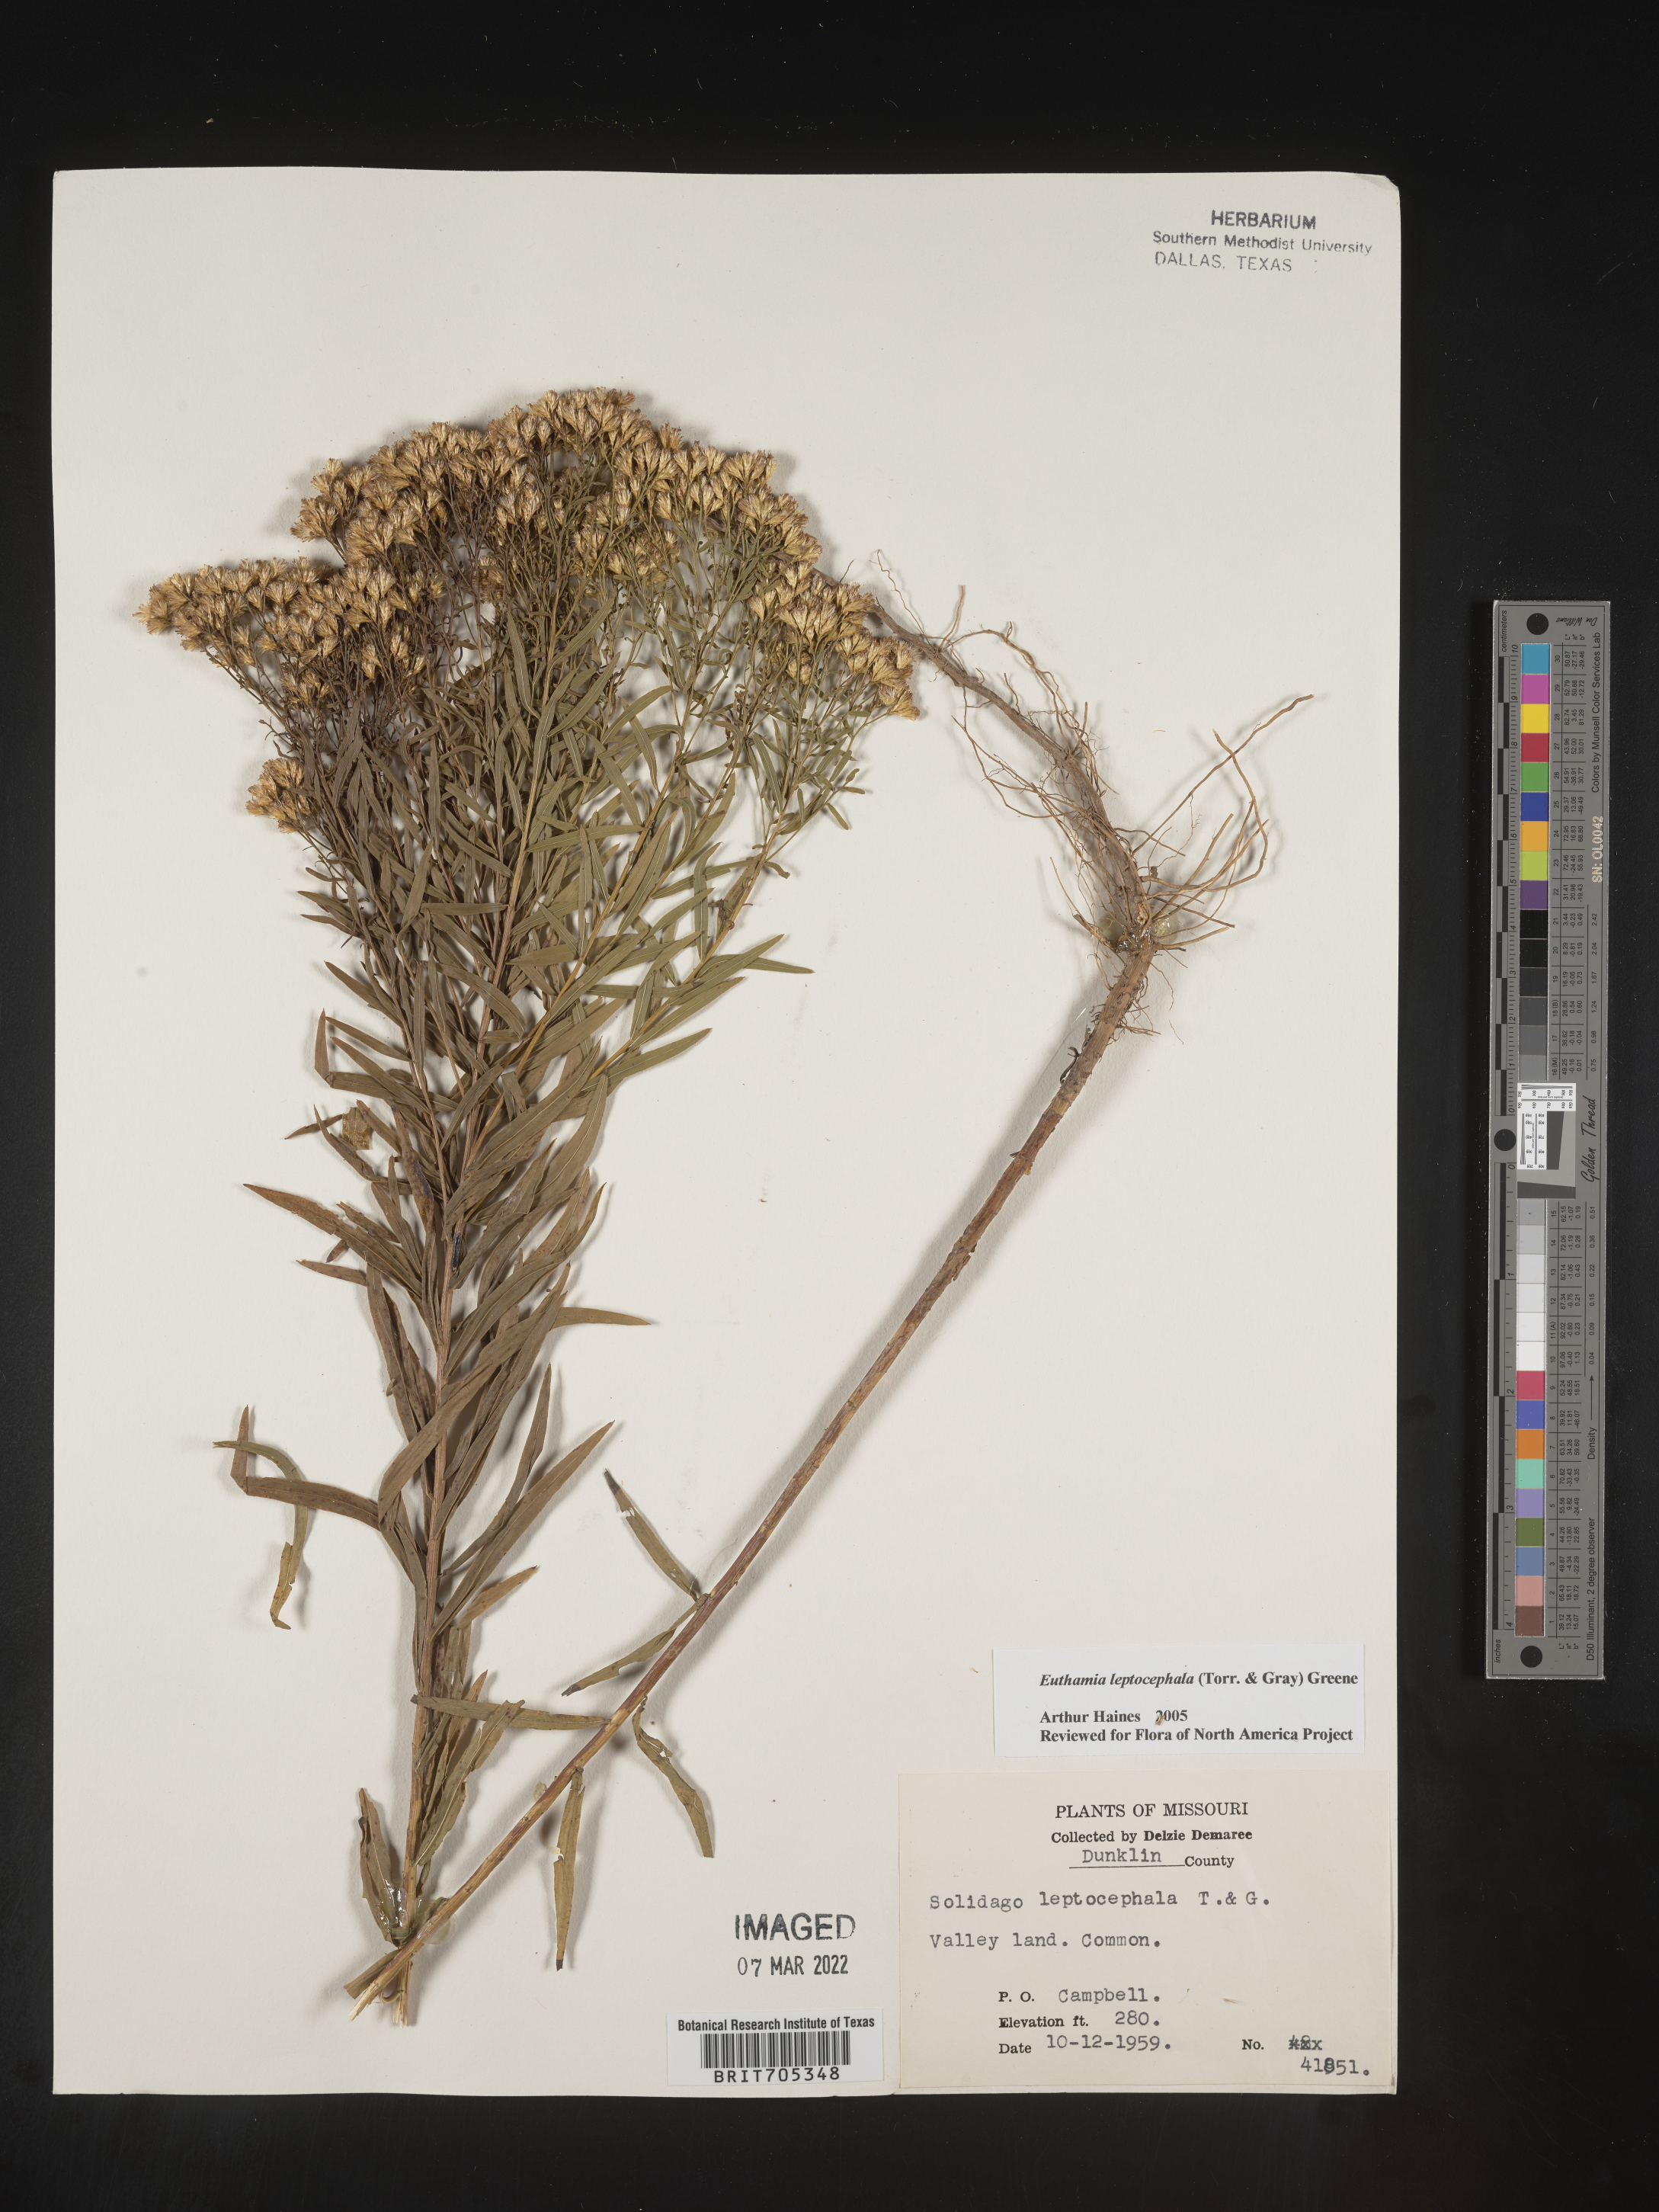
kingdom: Plantae
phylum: Tracheophyta
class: Magnoliopsida
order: Asterales
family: Asteraceae
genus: Euthamia
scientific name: Euthamia leptocephala
